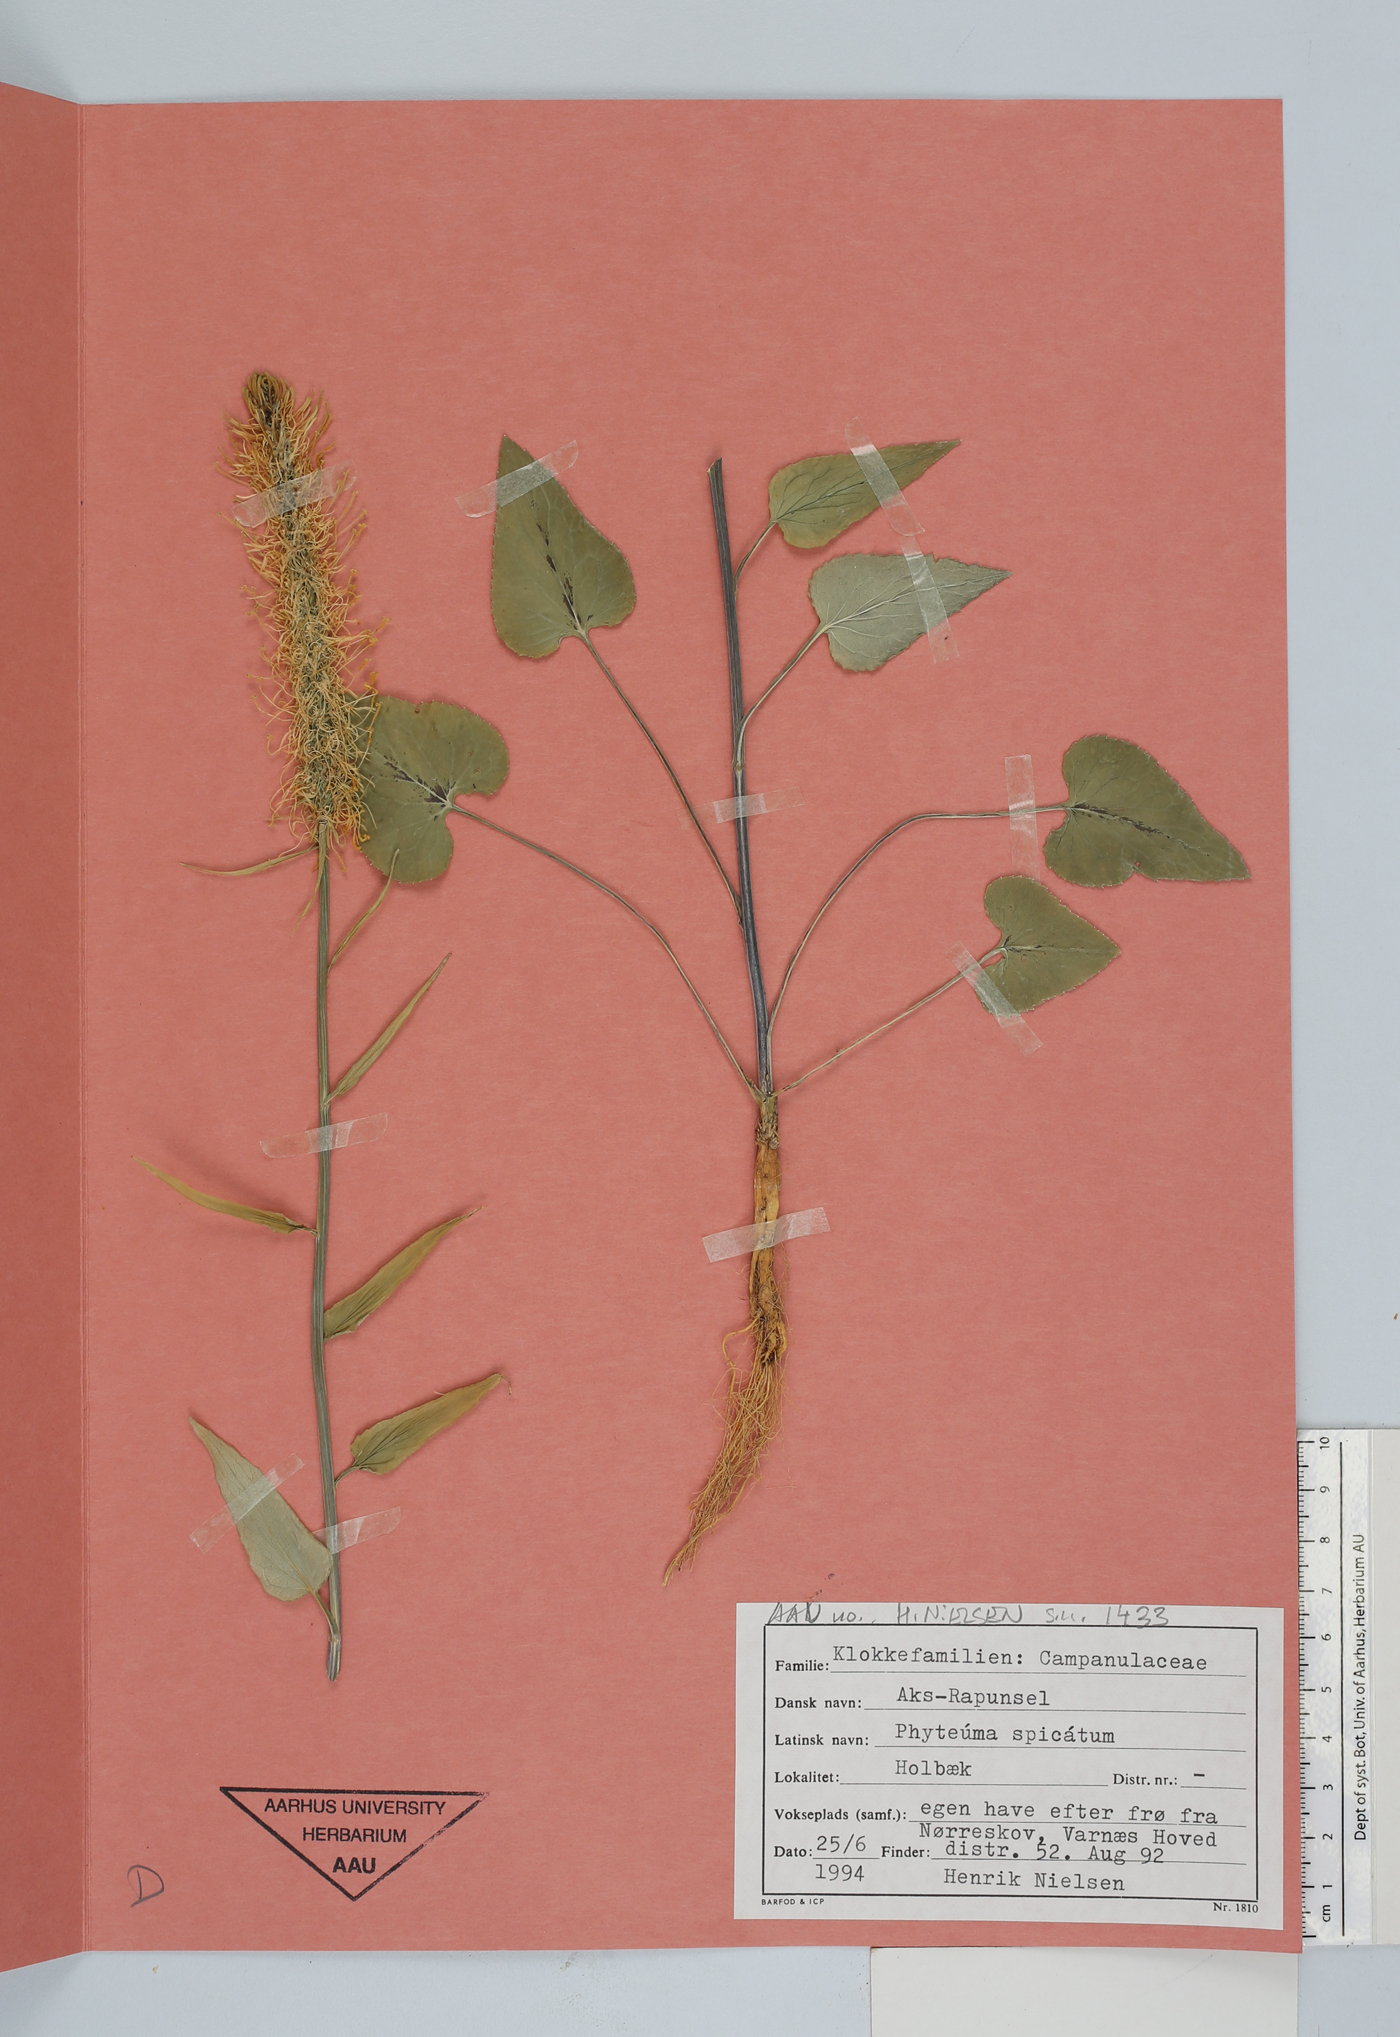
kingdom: Plantae
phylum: Tracheophyta
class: Magnoliopsida
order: Asterales
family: Campanulaceae
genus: Phyteuma
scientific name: Phyteuma spicatum
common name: Spiked rampion
